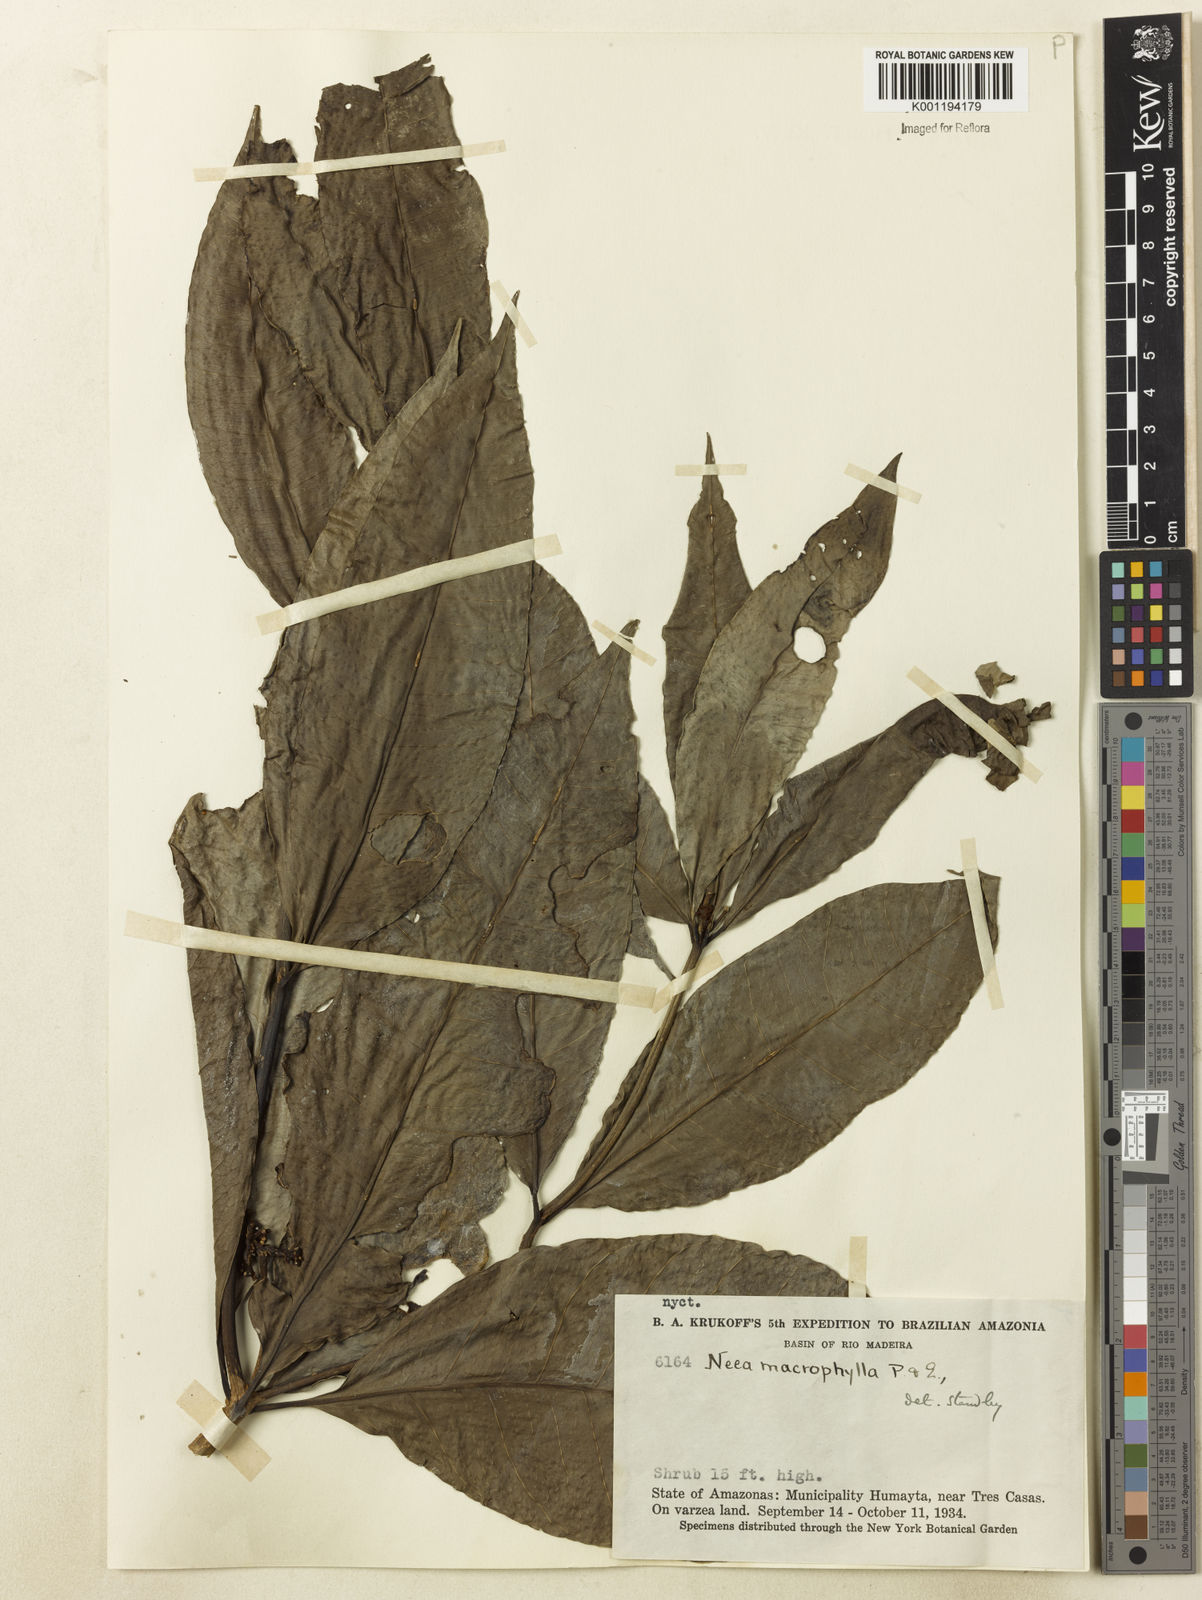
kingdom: Plantae
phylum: Tracheophyta
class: Magnoliopsida
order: Caryophyllales
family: Nyctaginaceae
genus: Neea
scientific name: Neea macrophylla
